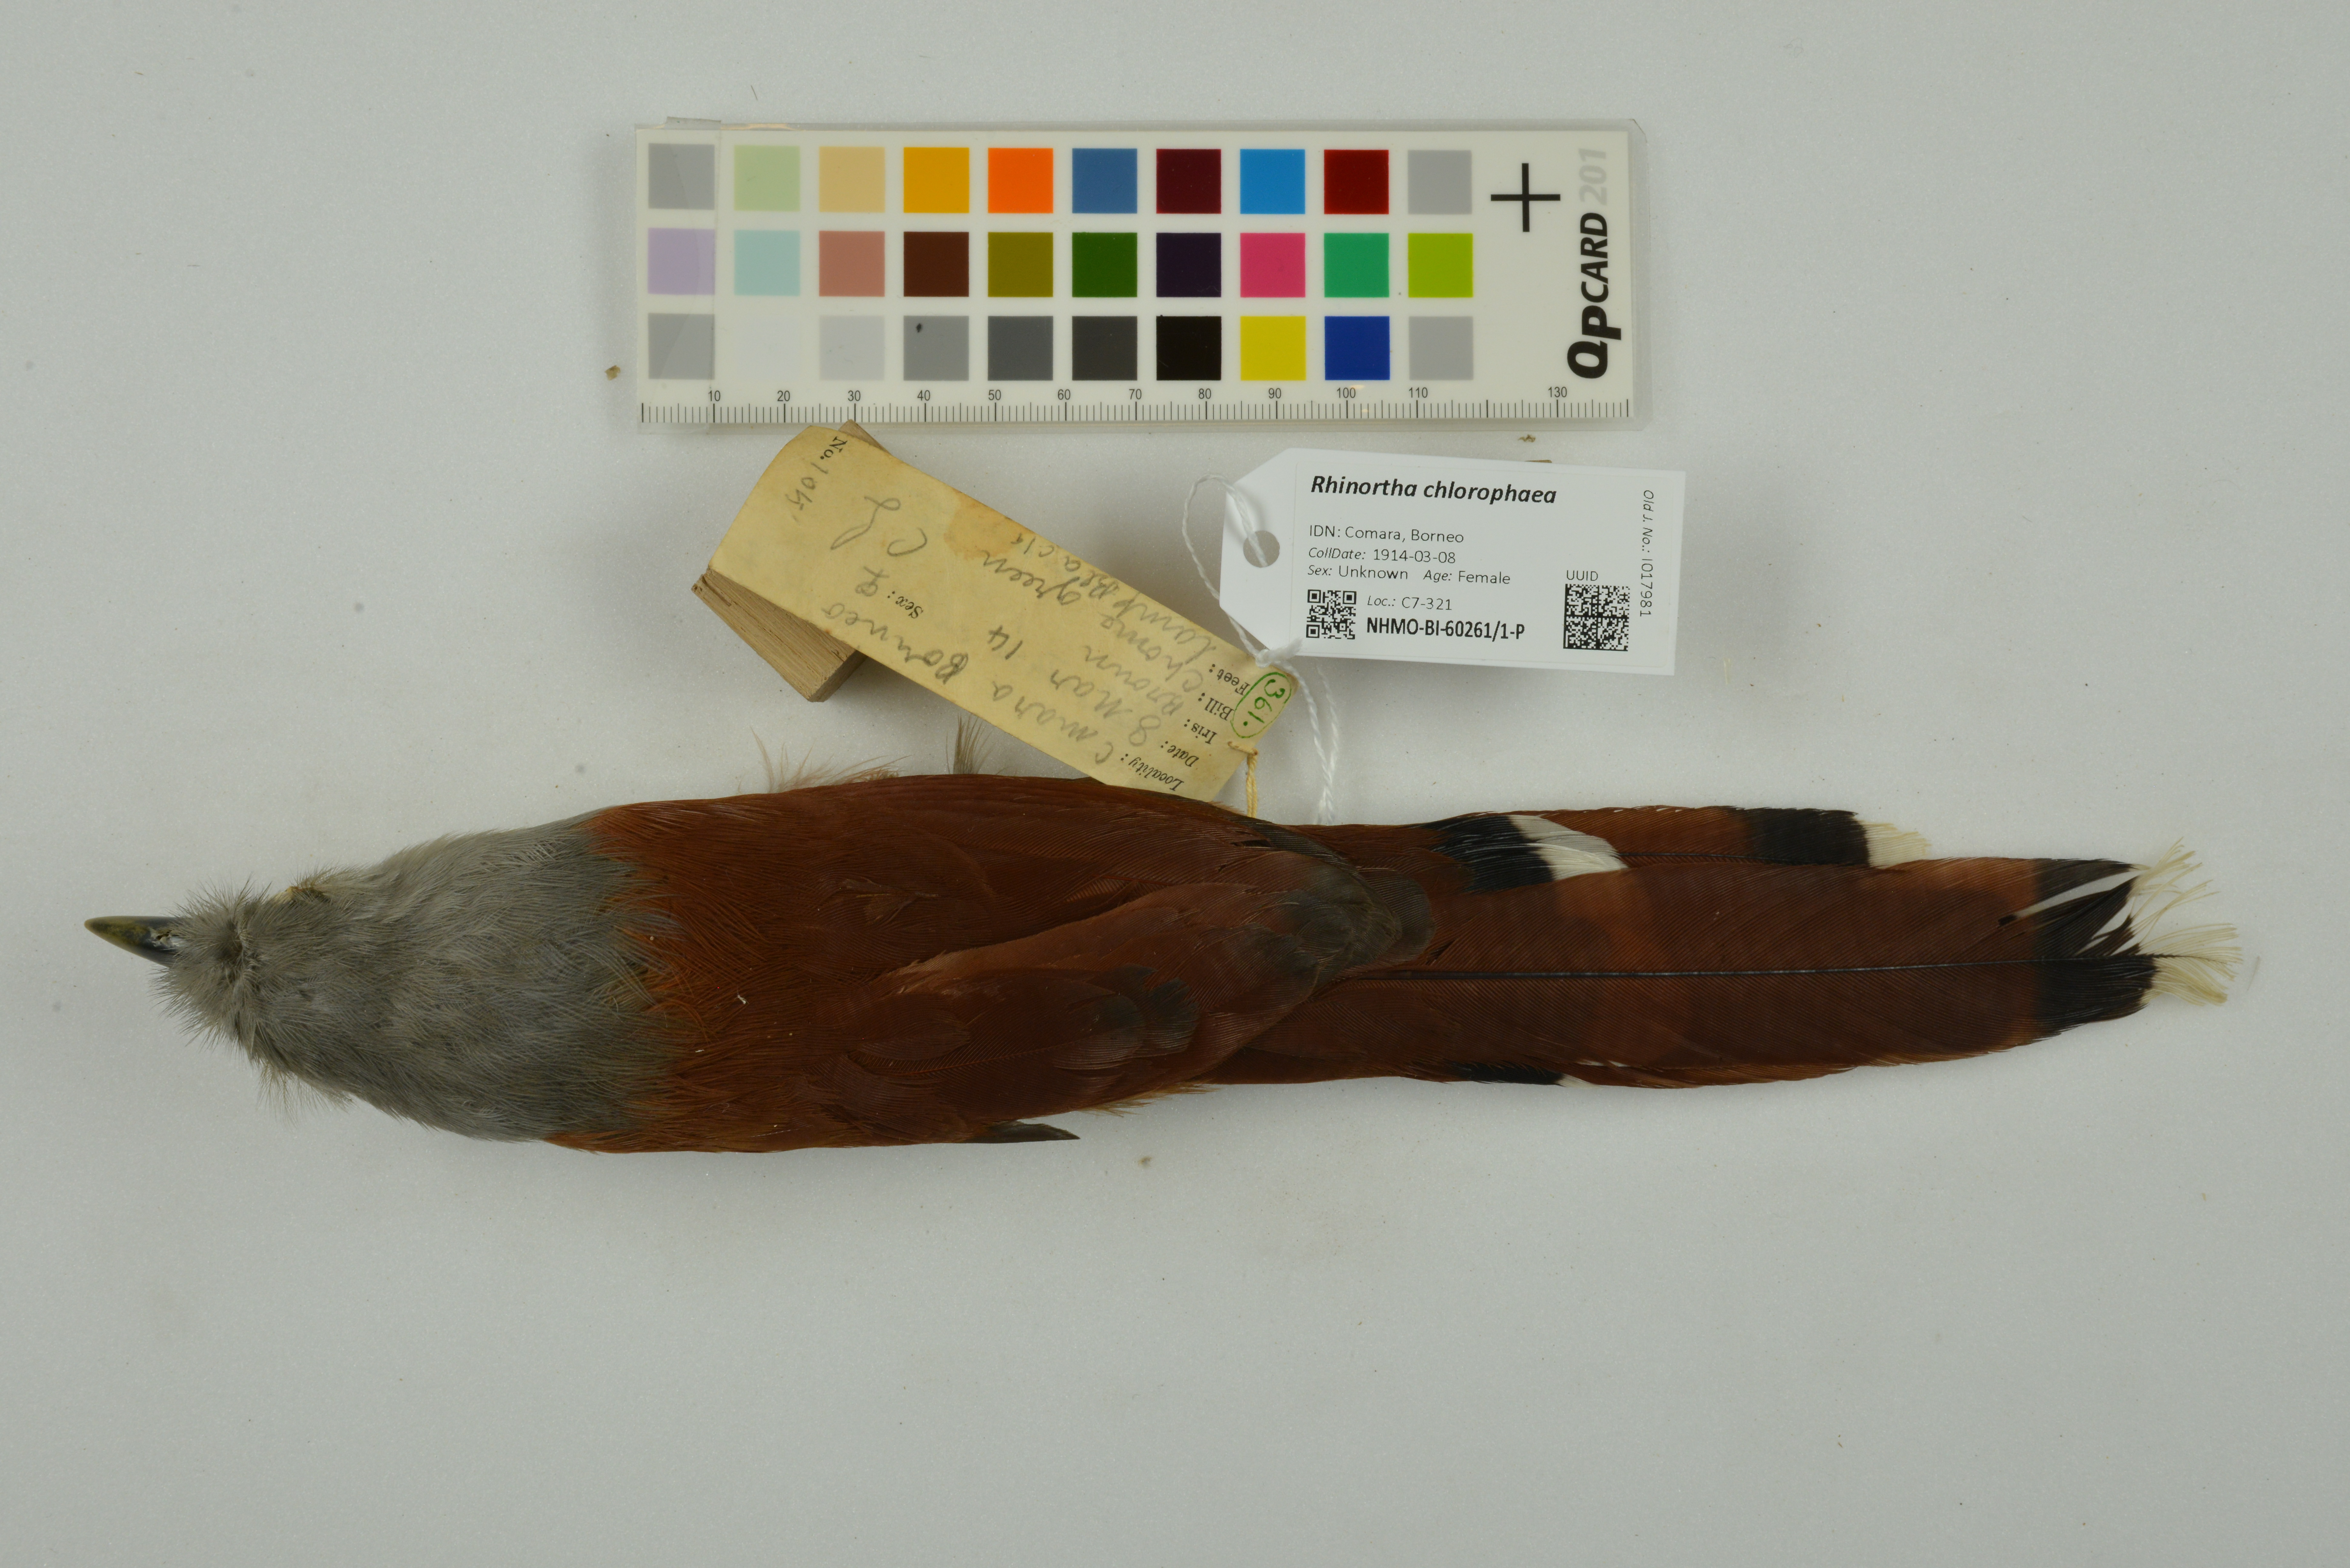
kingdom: Animalia
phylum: Chordata
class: Aves
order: Cuculiformes
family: Cuculidae
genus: Rhinortha
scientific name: Rhinortha chlorophaea
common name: Raffles's malkoha
